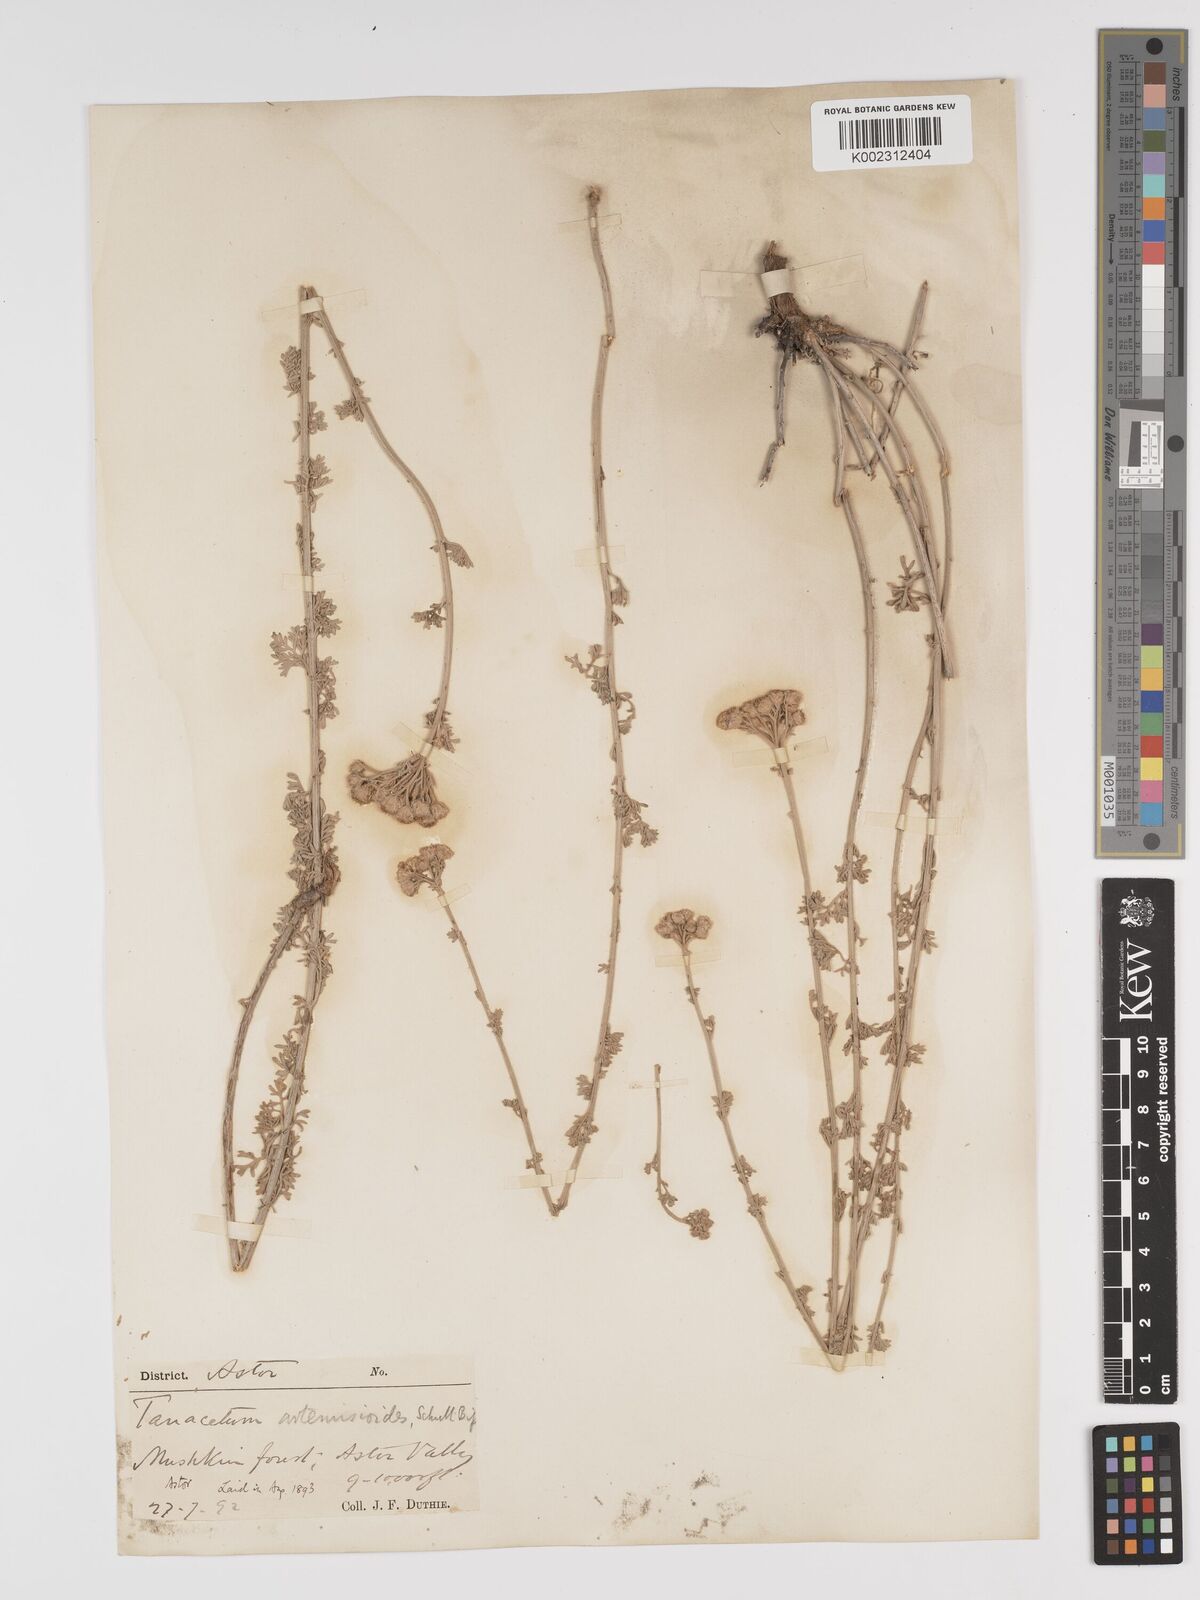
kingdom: Plantae
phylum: Tracheophyta
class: Magnoliopsida
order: Asterales
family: Asteraceae
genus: Tanacetum
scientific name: Tanacetum artemisioides
